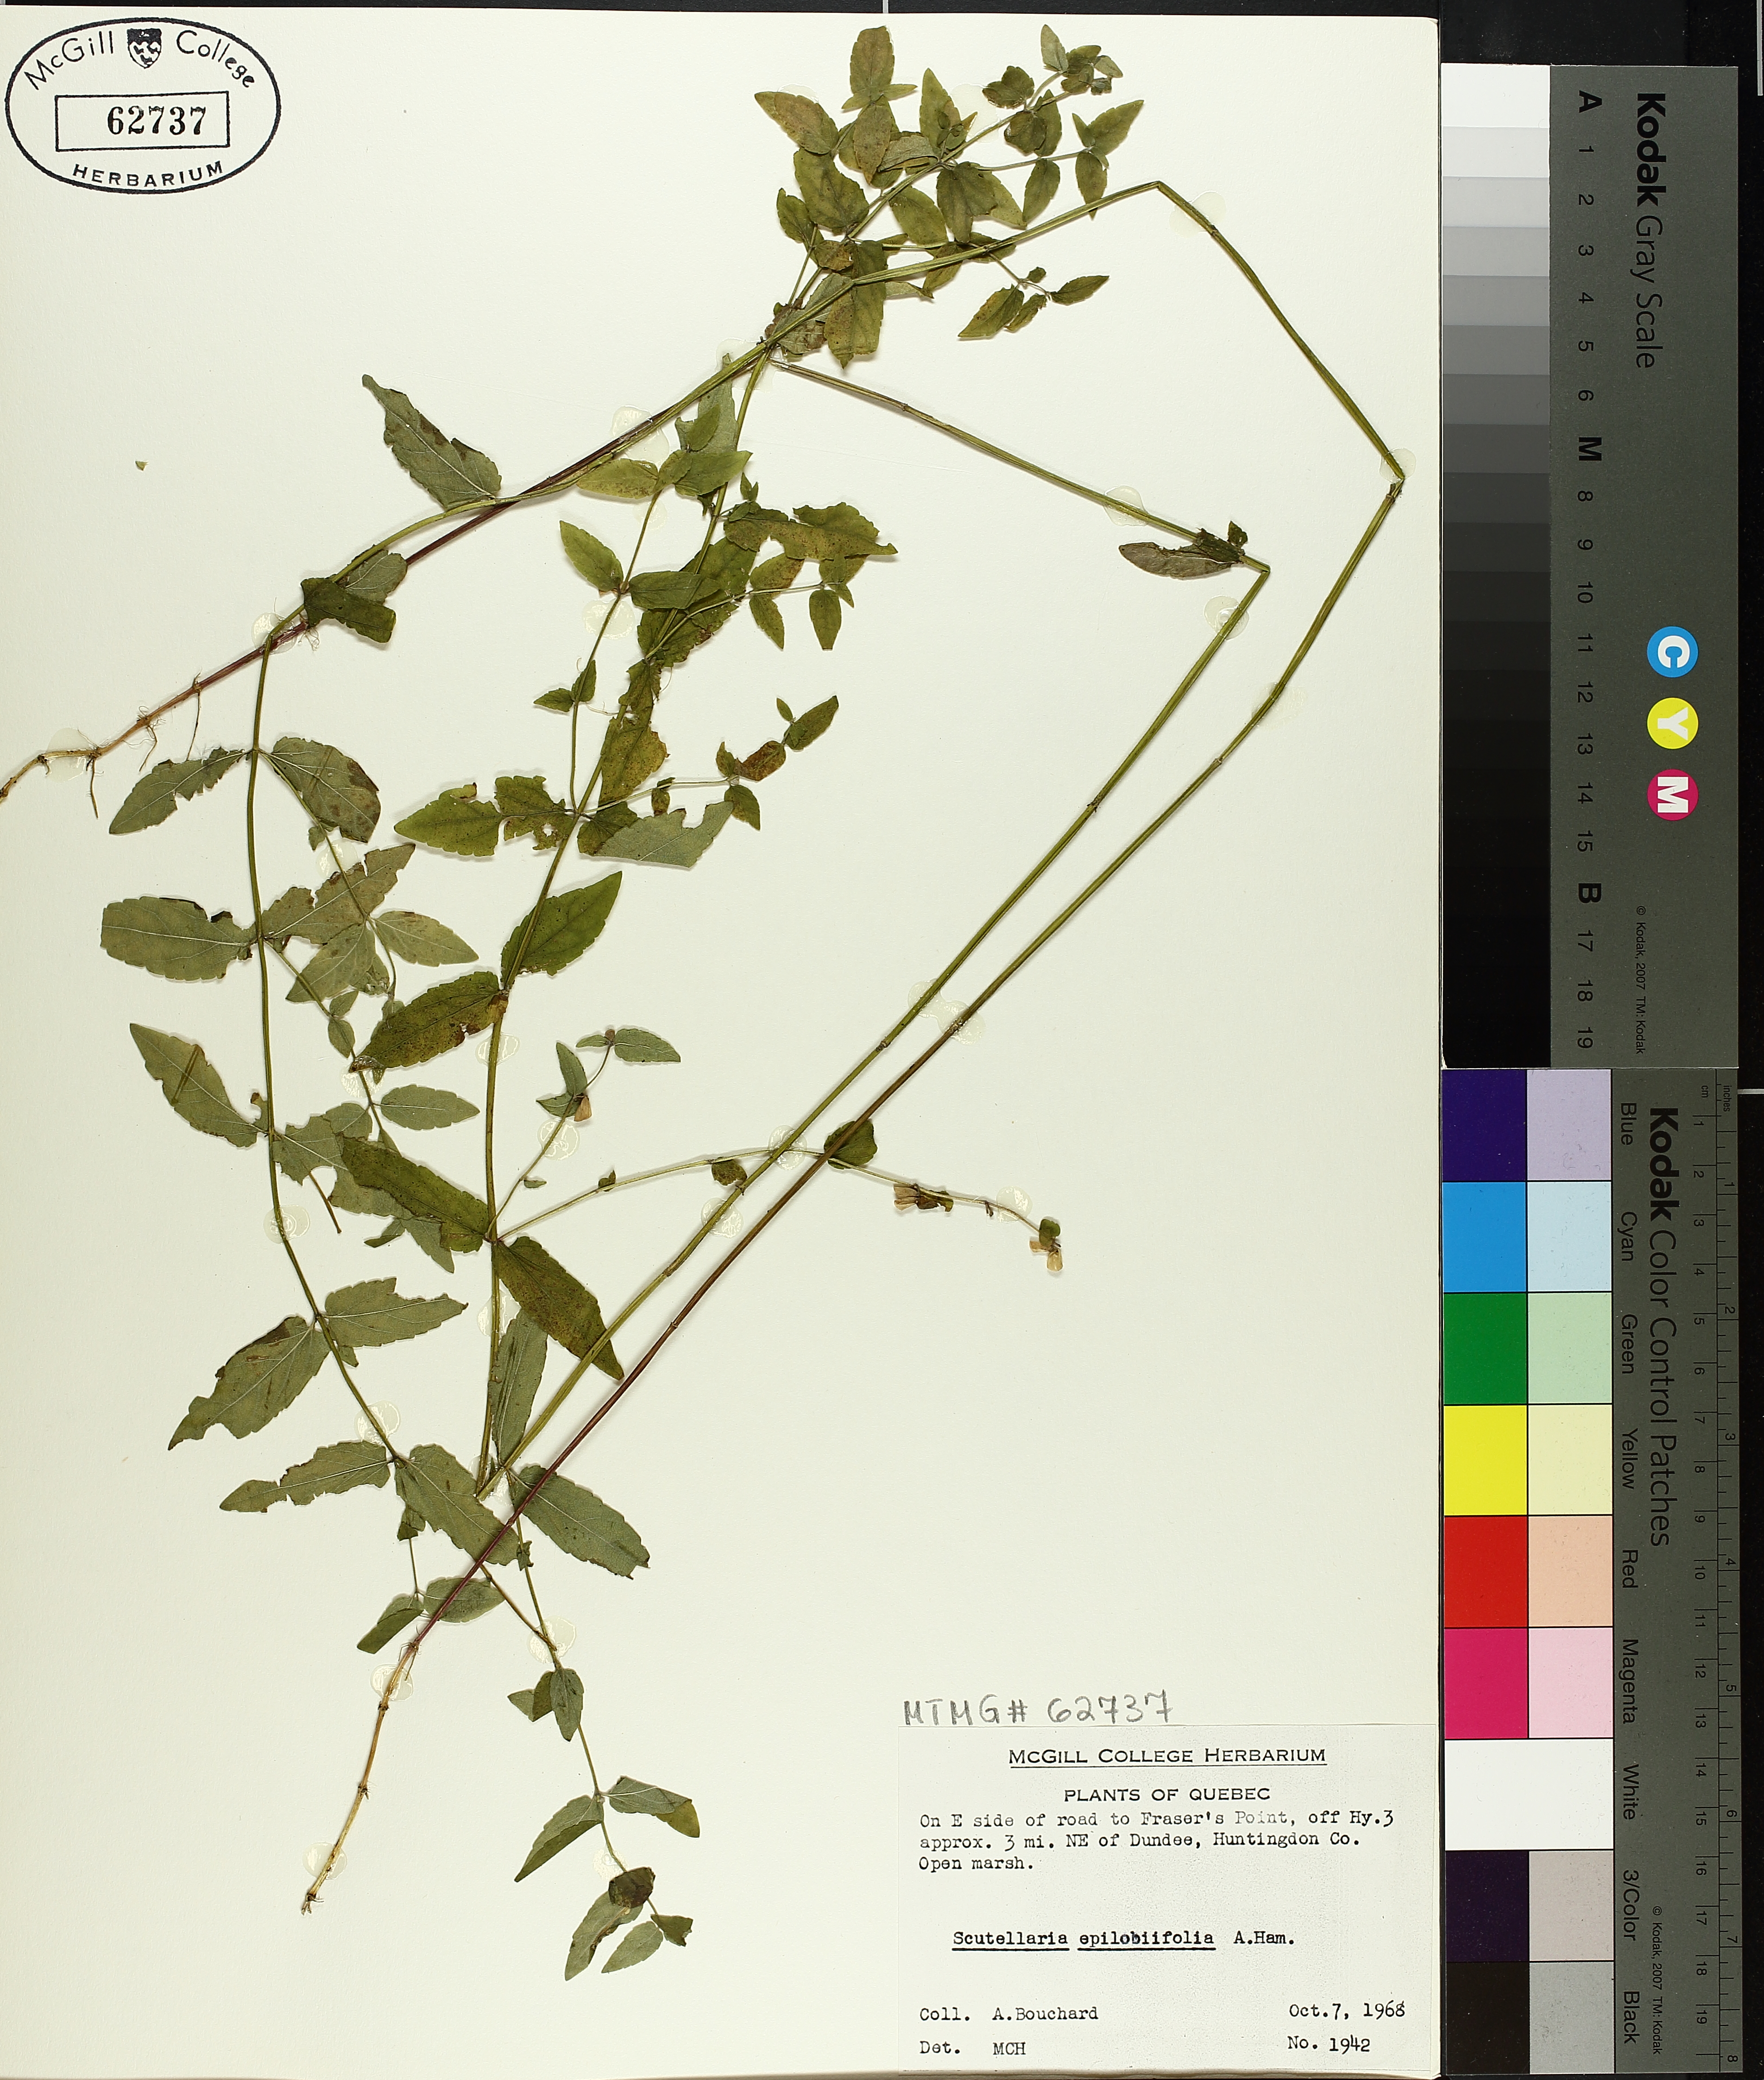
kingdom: Plantae
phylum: Tracheophyta
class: Magnoliopsida
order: Lamiales
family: Lamiaceae
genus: Scutellaria
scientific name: Scutellaria galericulata
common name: Skullcap
